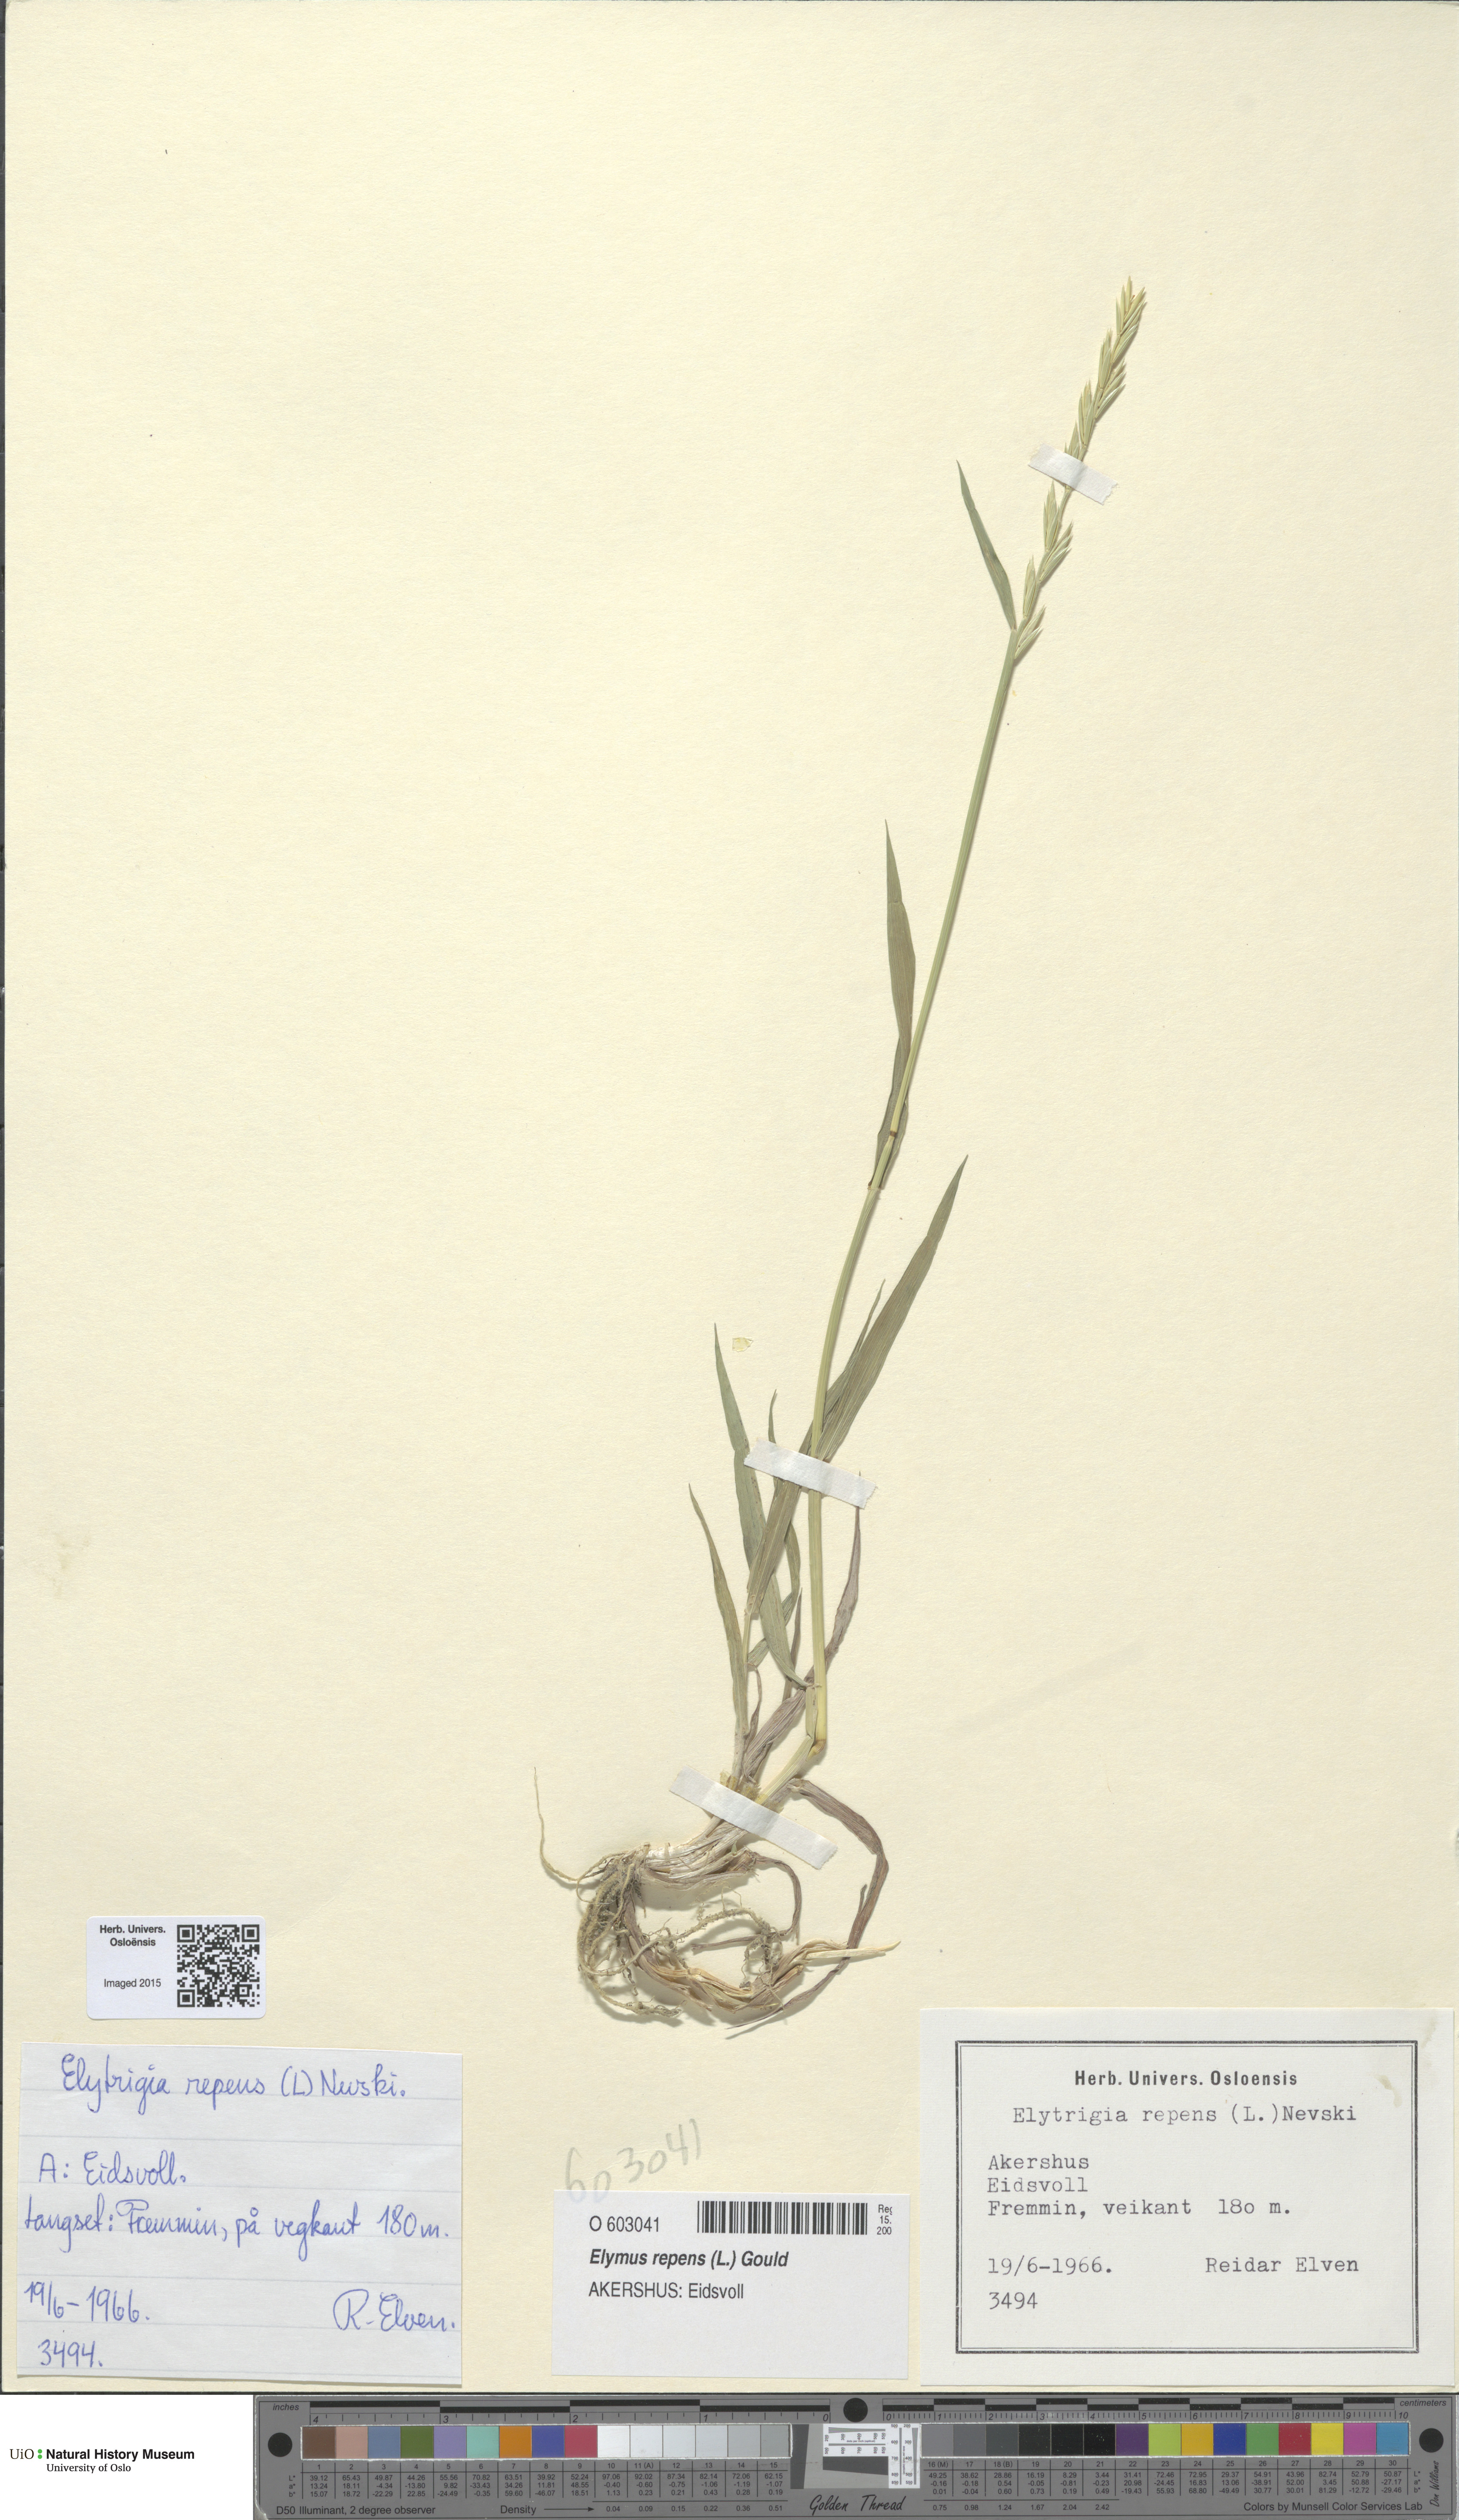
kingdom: Plantae
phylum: Tracheophyta
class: Liliopsida
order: Poales
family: Poaceae
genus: Elymus
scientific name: Elymus repens
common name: Quackgrass
